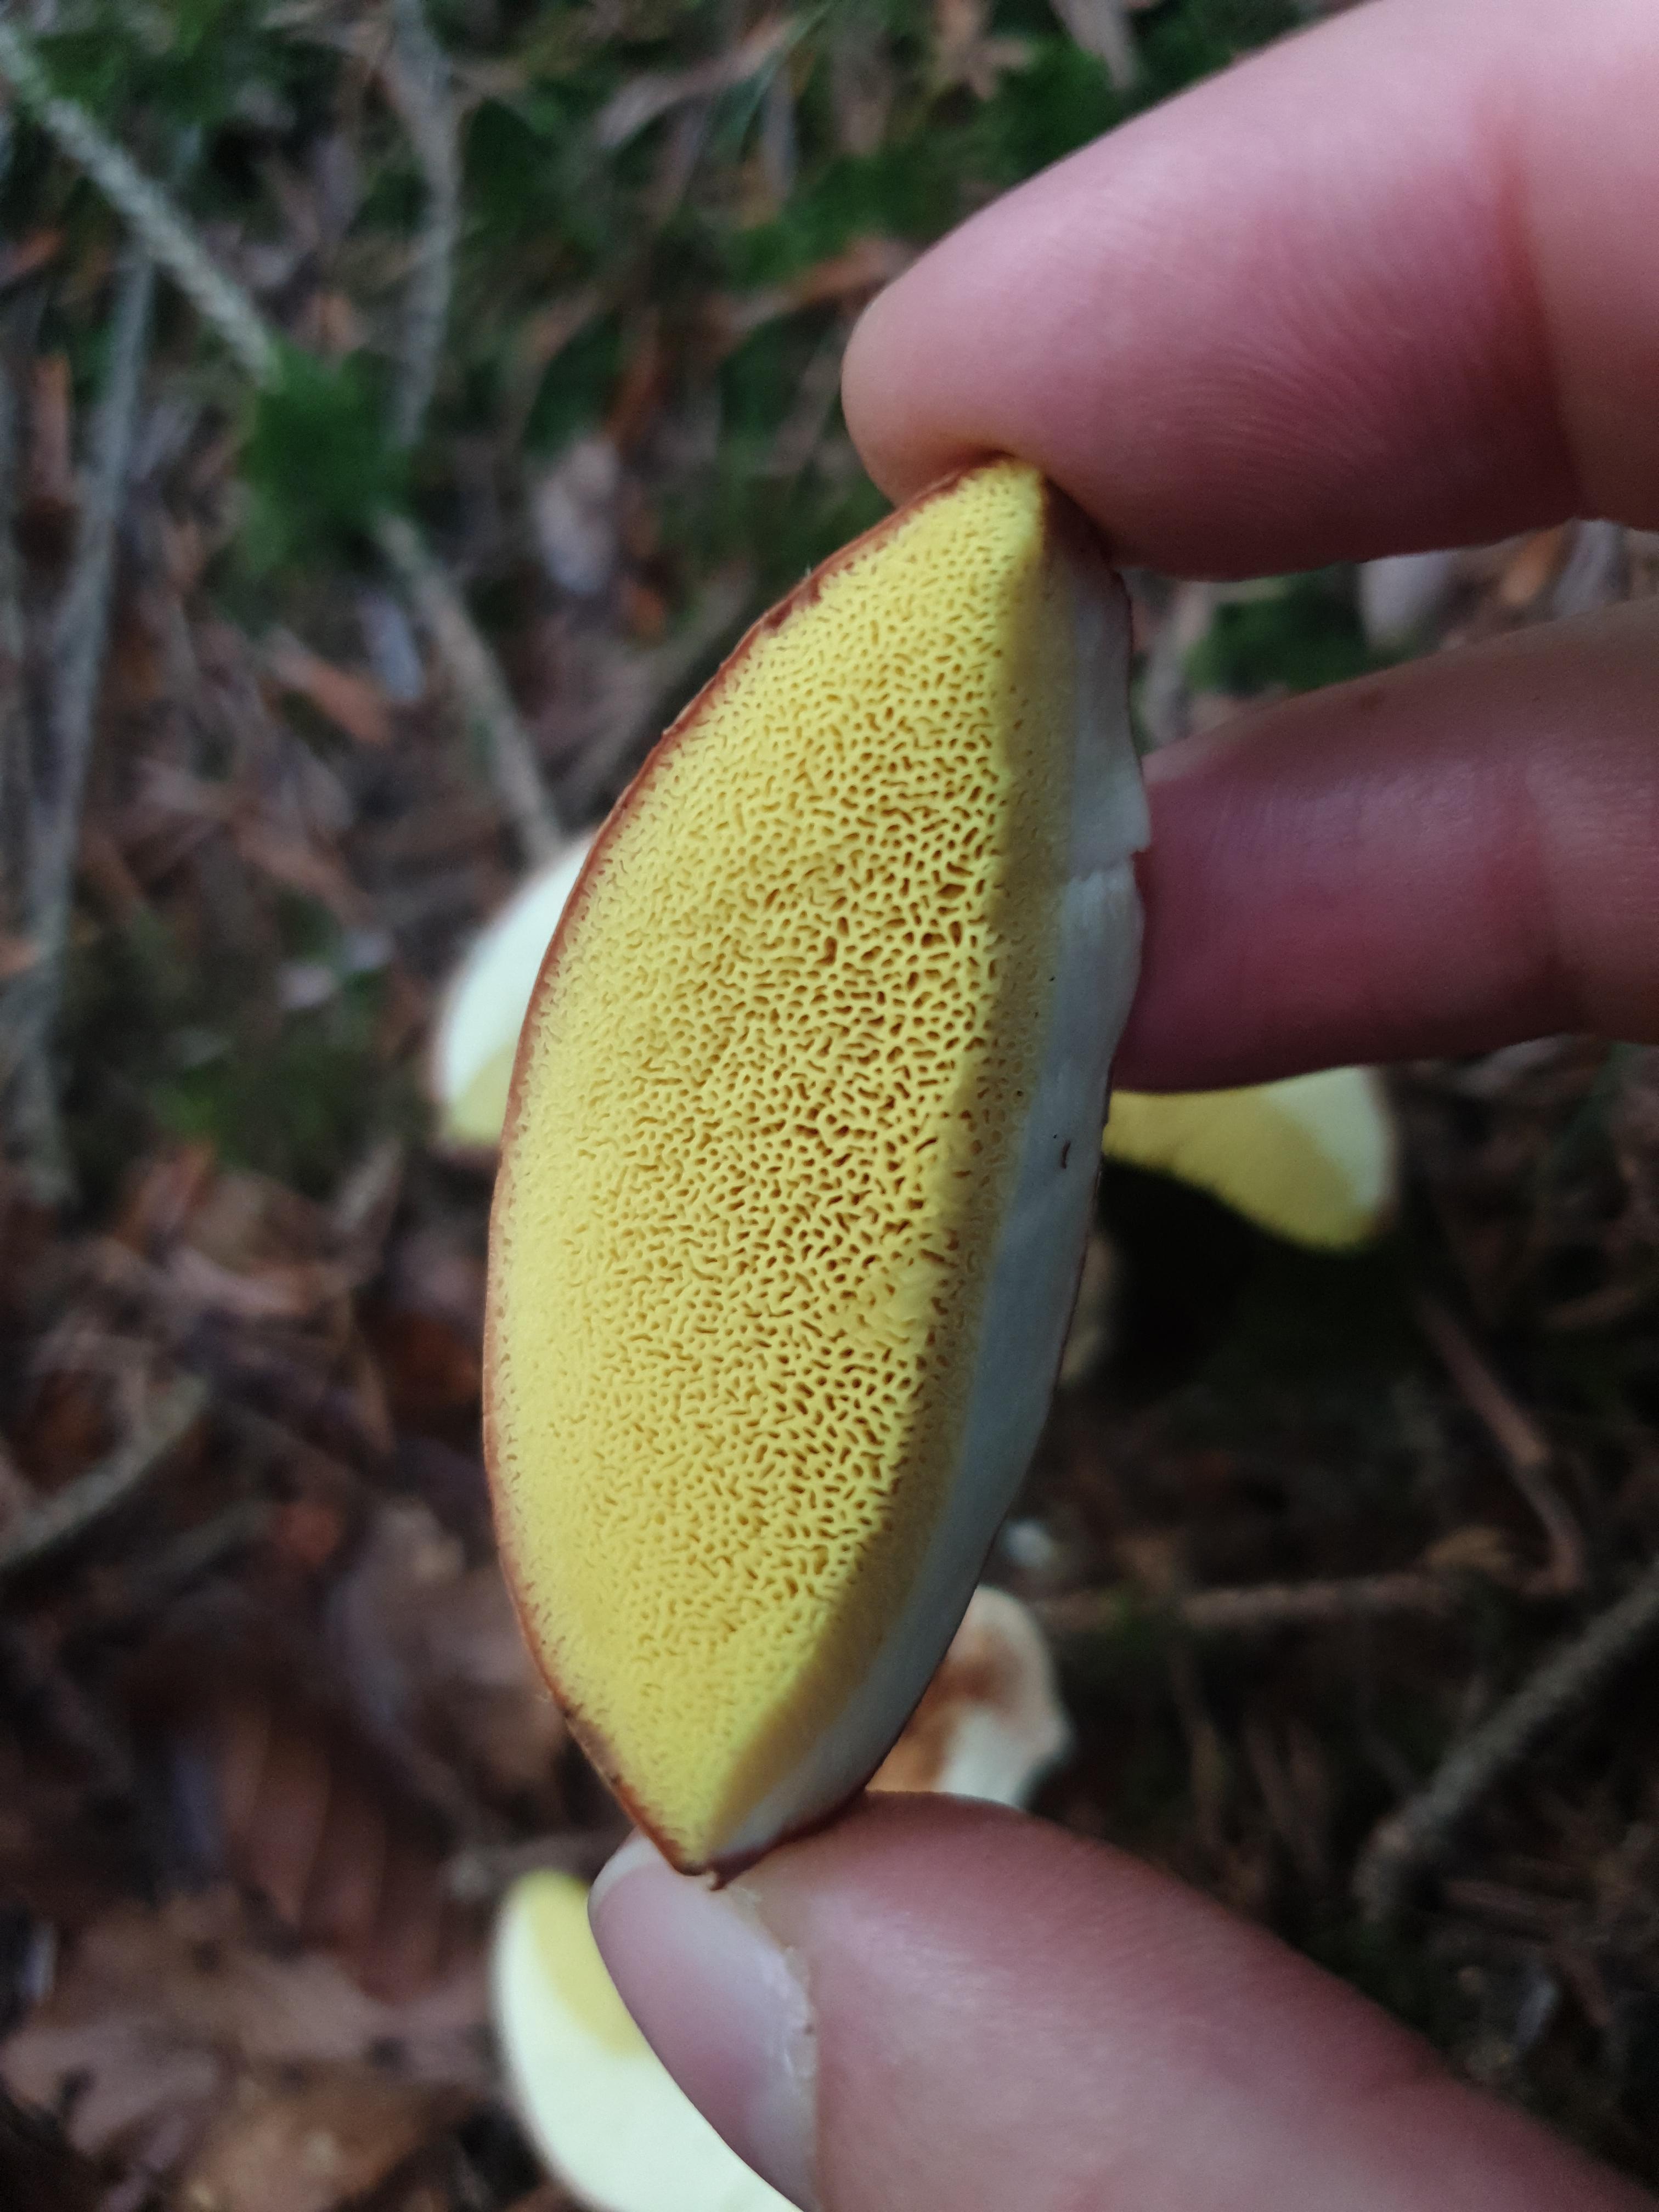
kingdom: Fungi
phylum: Basidiomycota
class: Agaricomycetes
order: Boletales
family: Boletaceae
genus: Xerocomus
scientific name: Xerocomus ferrugineus
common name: vaskeskinds-rørhat
